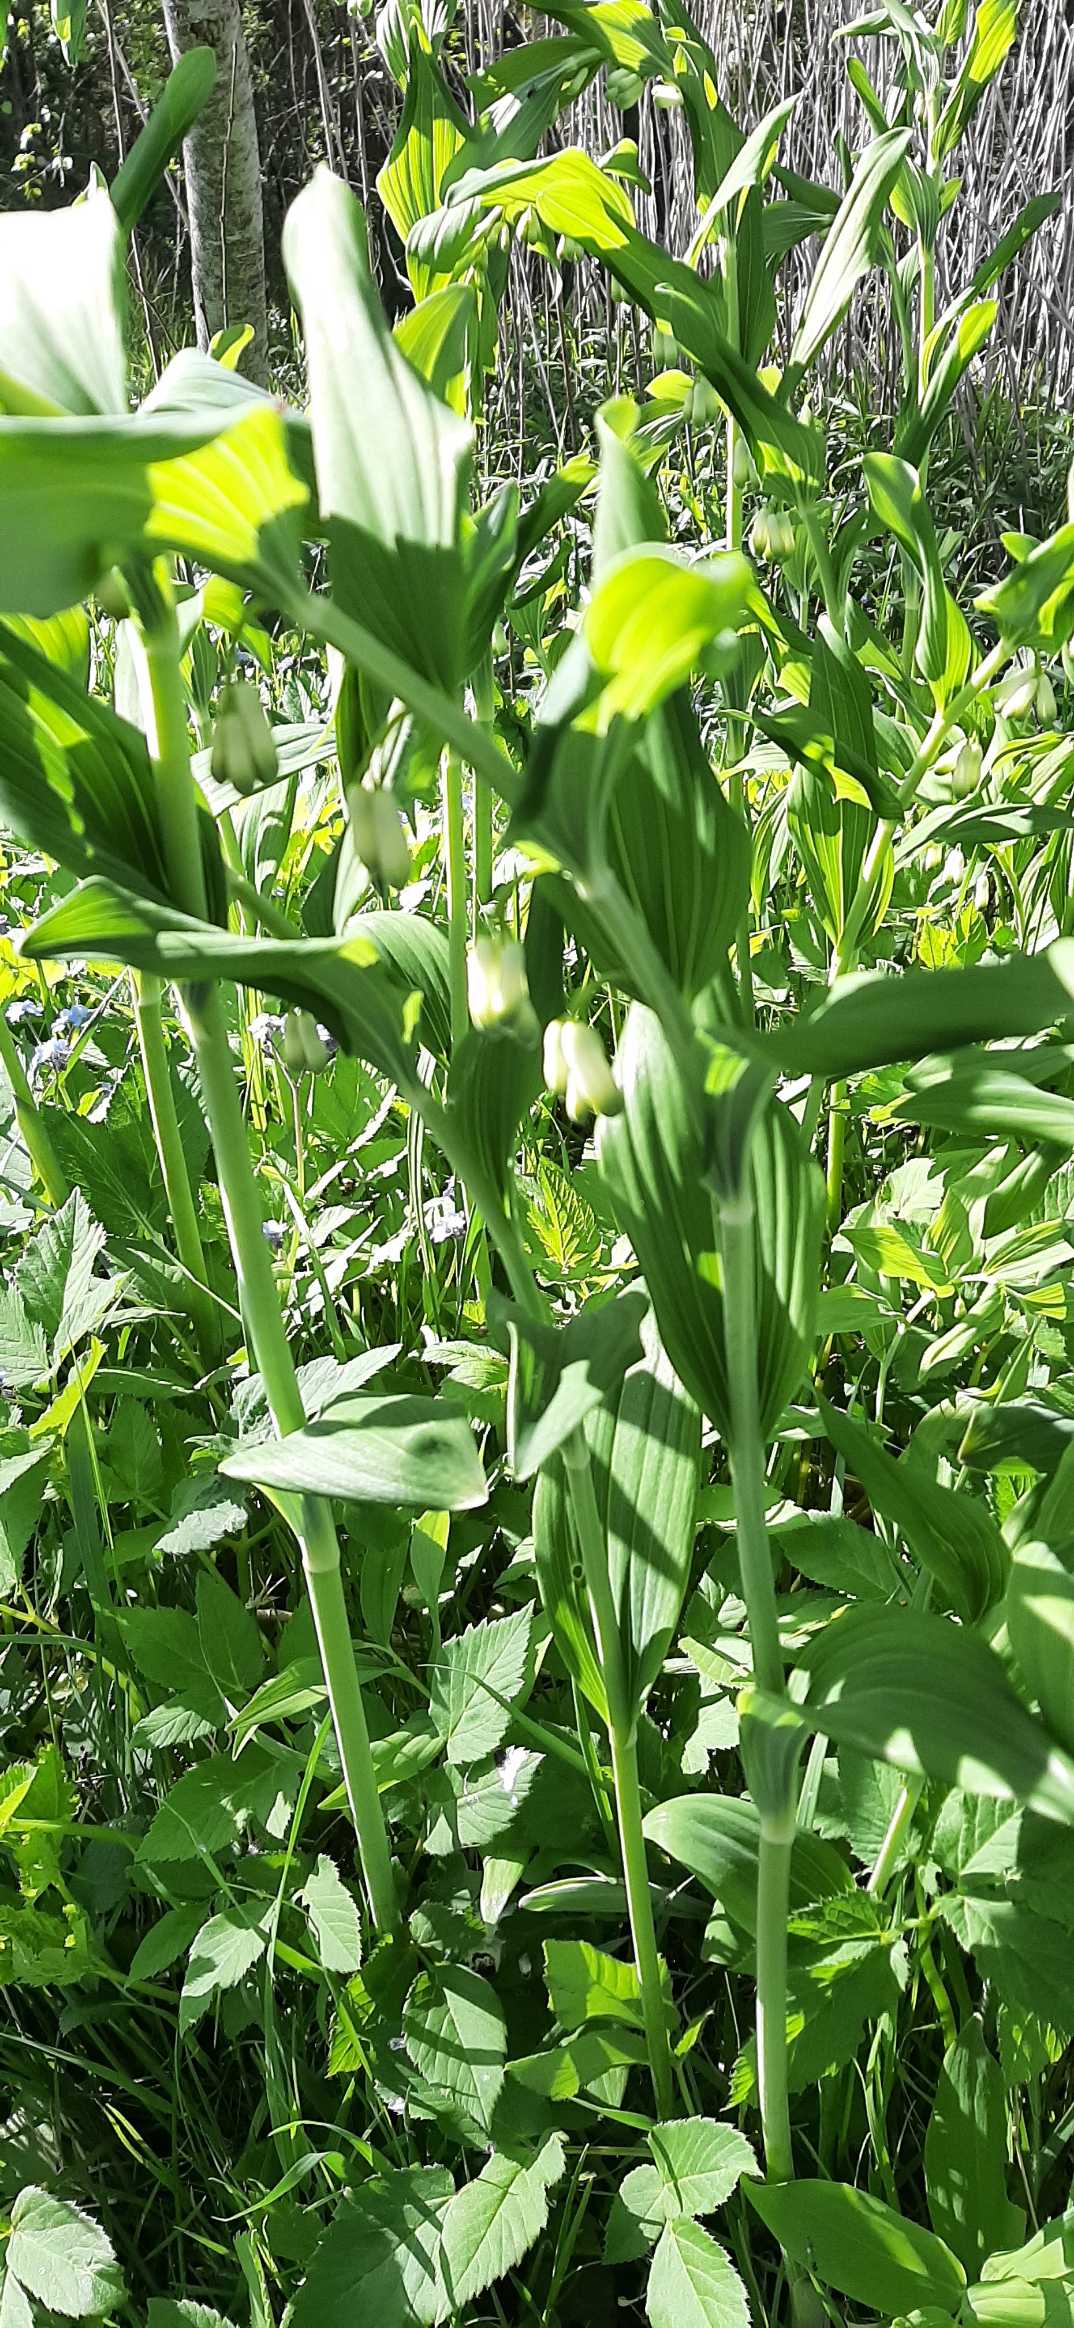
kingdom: Plantae
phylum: Tracheophyta
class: Liliopsida
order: Asparagales
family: Asparagaceae
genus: Polygonatum
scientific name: Polygonatum
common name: Hybrid-konval
